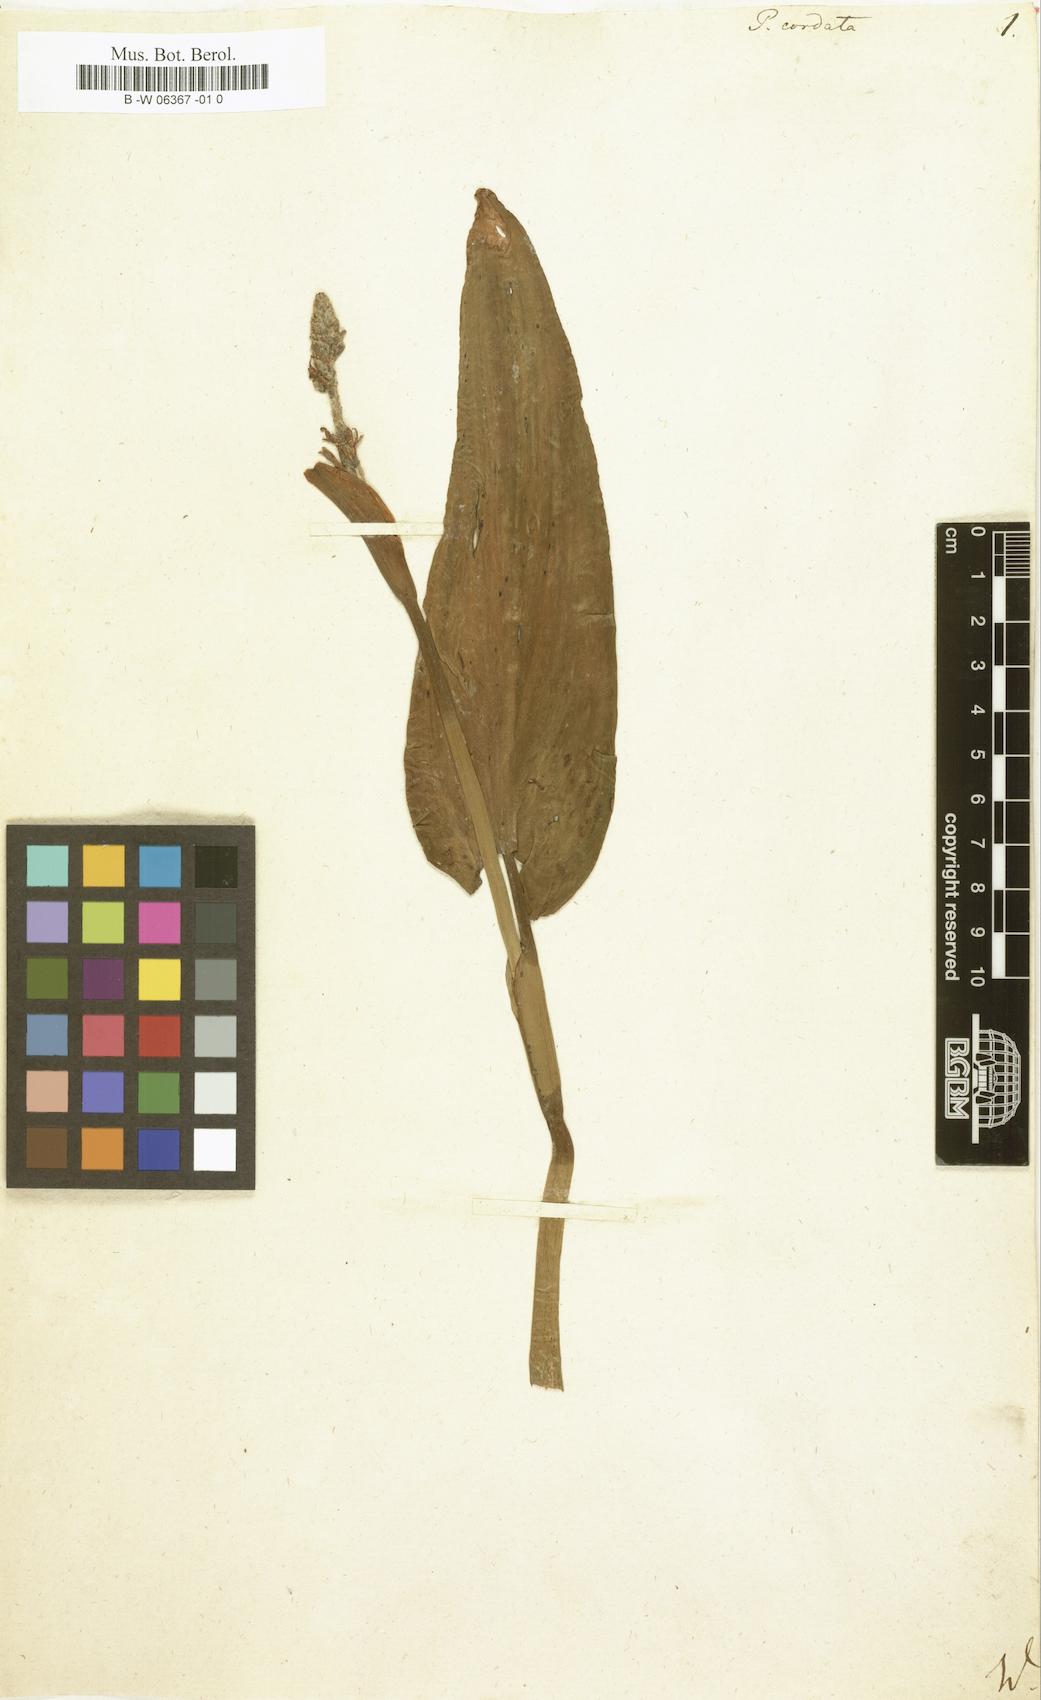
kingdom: Plantae
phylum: Tracheophyta
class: Liliopsida
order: Commelinales
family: Pontederiaceae
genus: Pontederia
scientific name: Pontederia cordata
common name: Pickerelweed
